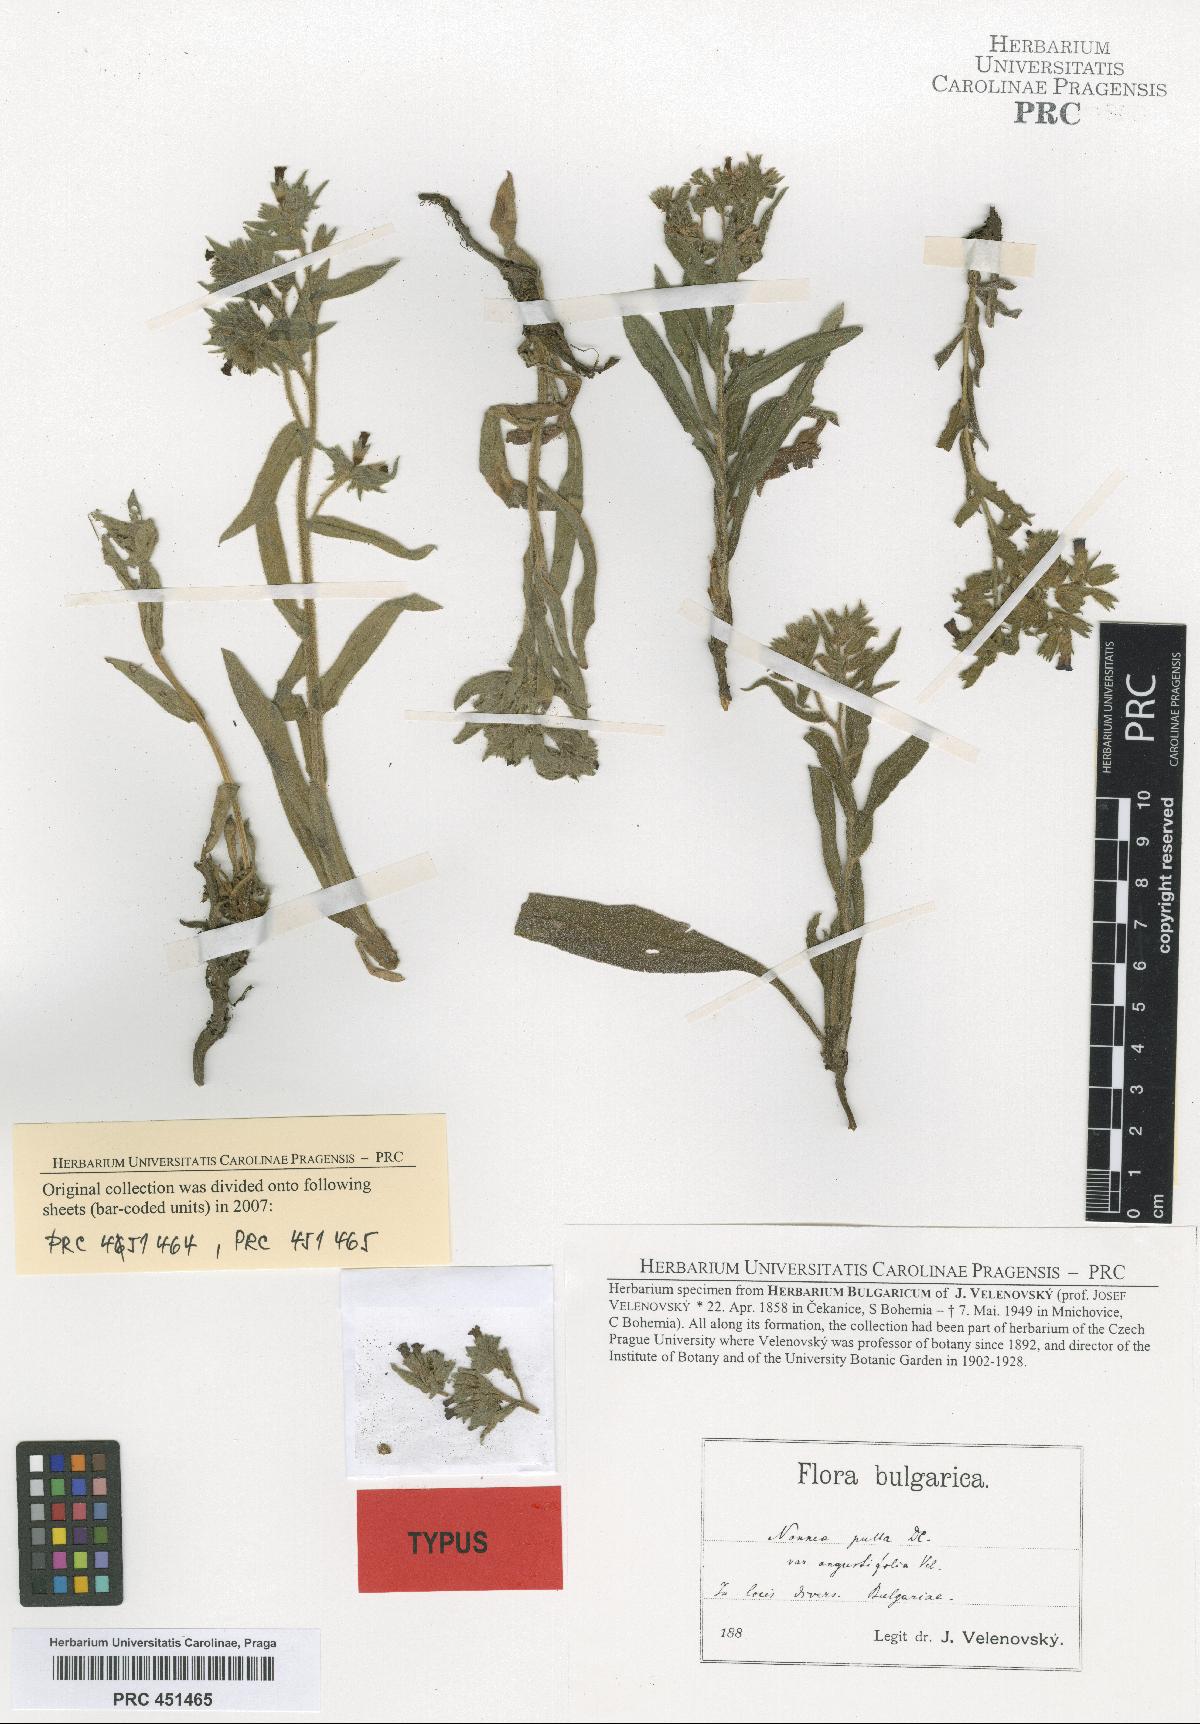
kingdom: Plantae
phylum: Tracheophyta
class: Magnoliopsida
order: Boraginales
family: Boraginaceae
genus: Nonea
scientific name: Nonea pulla
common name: Brown nonea
